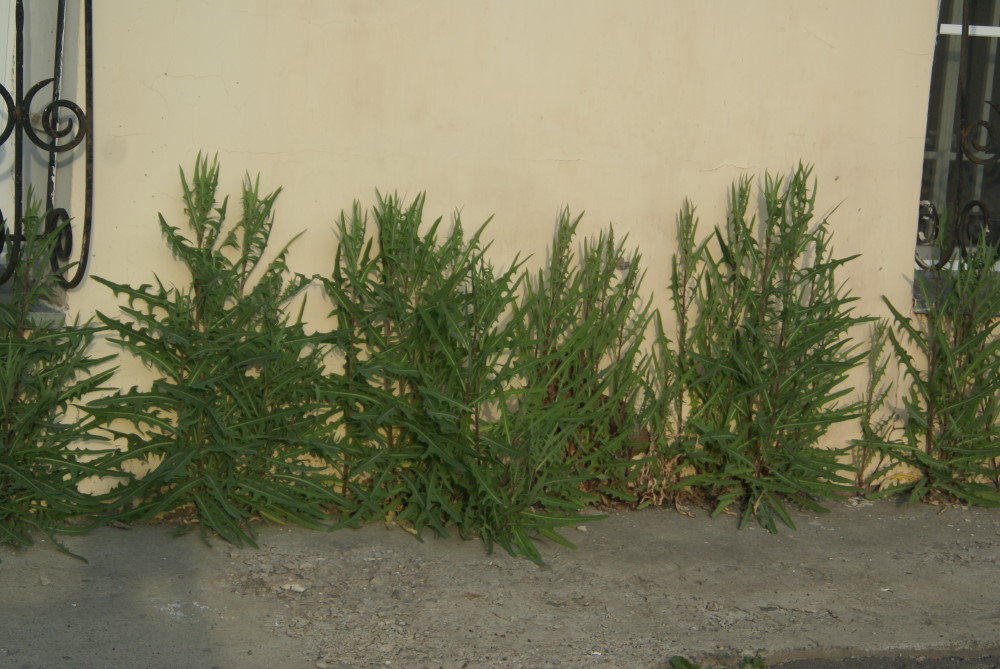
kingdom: Plantae
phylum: Tracheophyta
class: Magnoliopsida
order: Asterales
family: Asteraceae
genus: Lactuca
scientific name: Lactuca serriola
